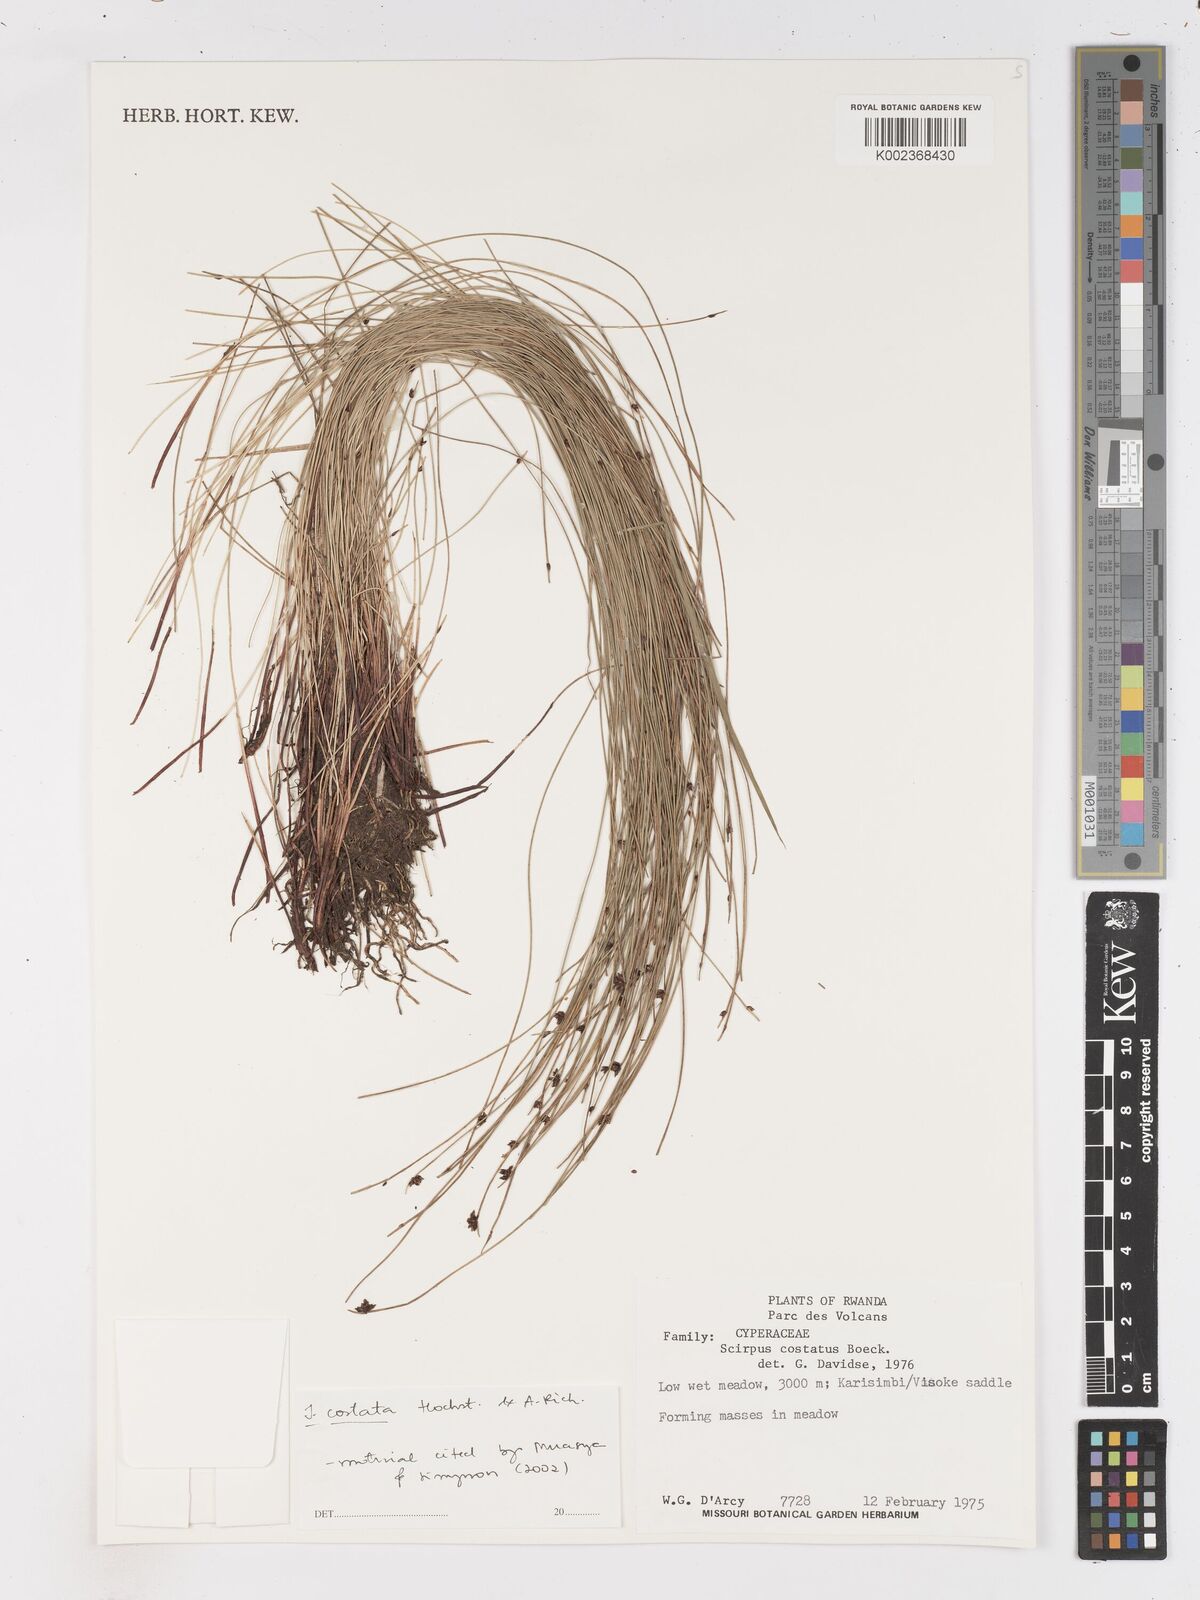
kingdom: Plantae
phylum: Tracheophyta
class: Liliopsida
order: Poales
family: Cyperaceae
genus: Isolepis
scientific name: Isolepis costata
